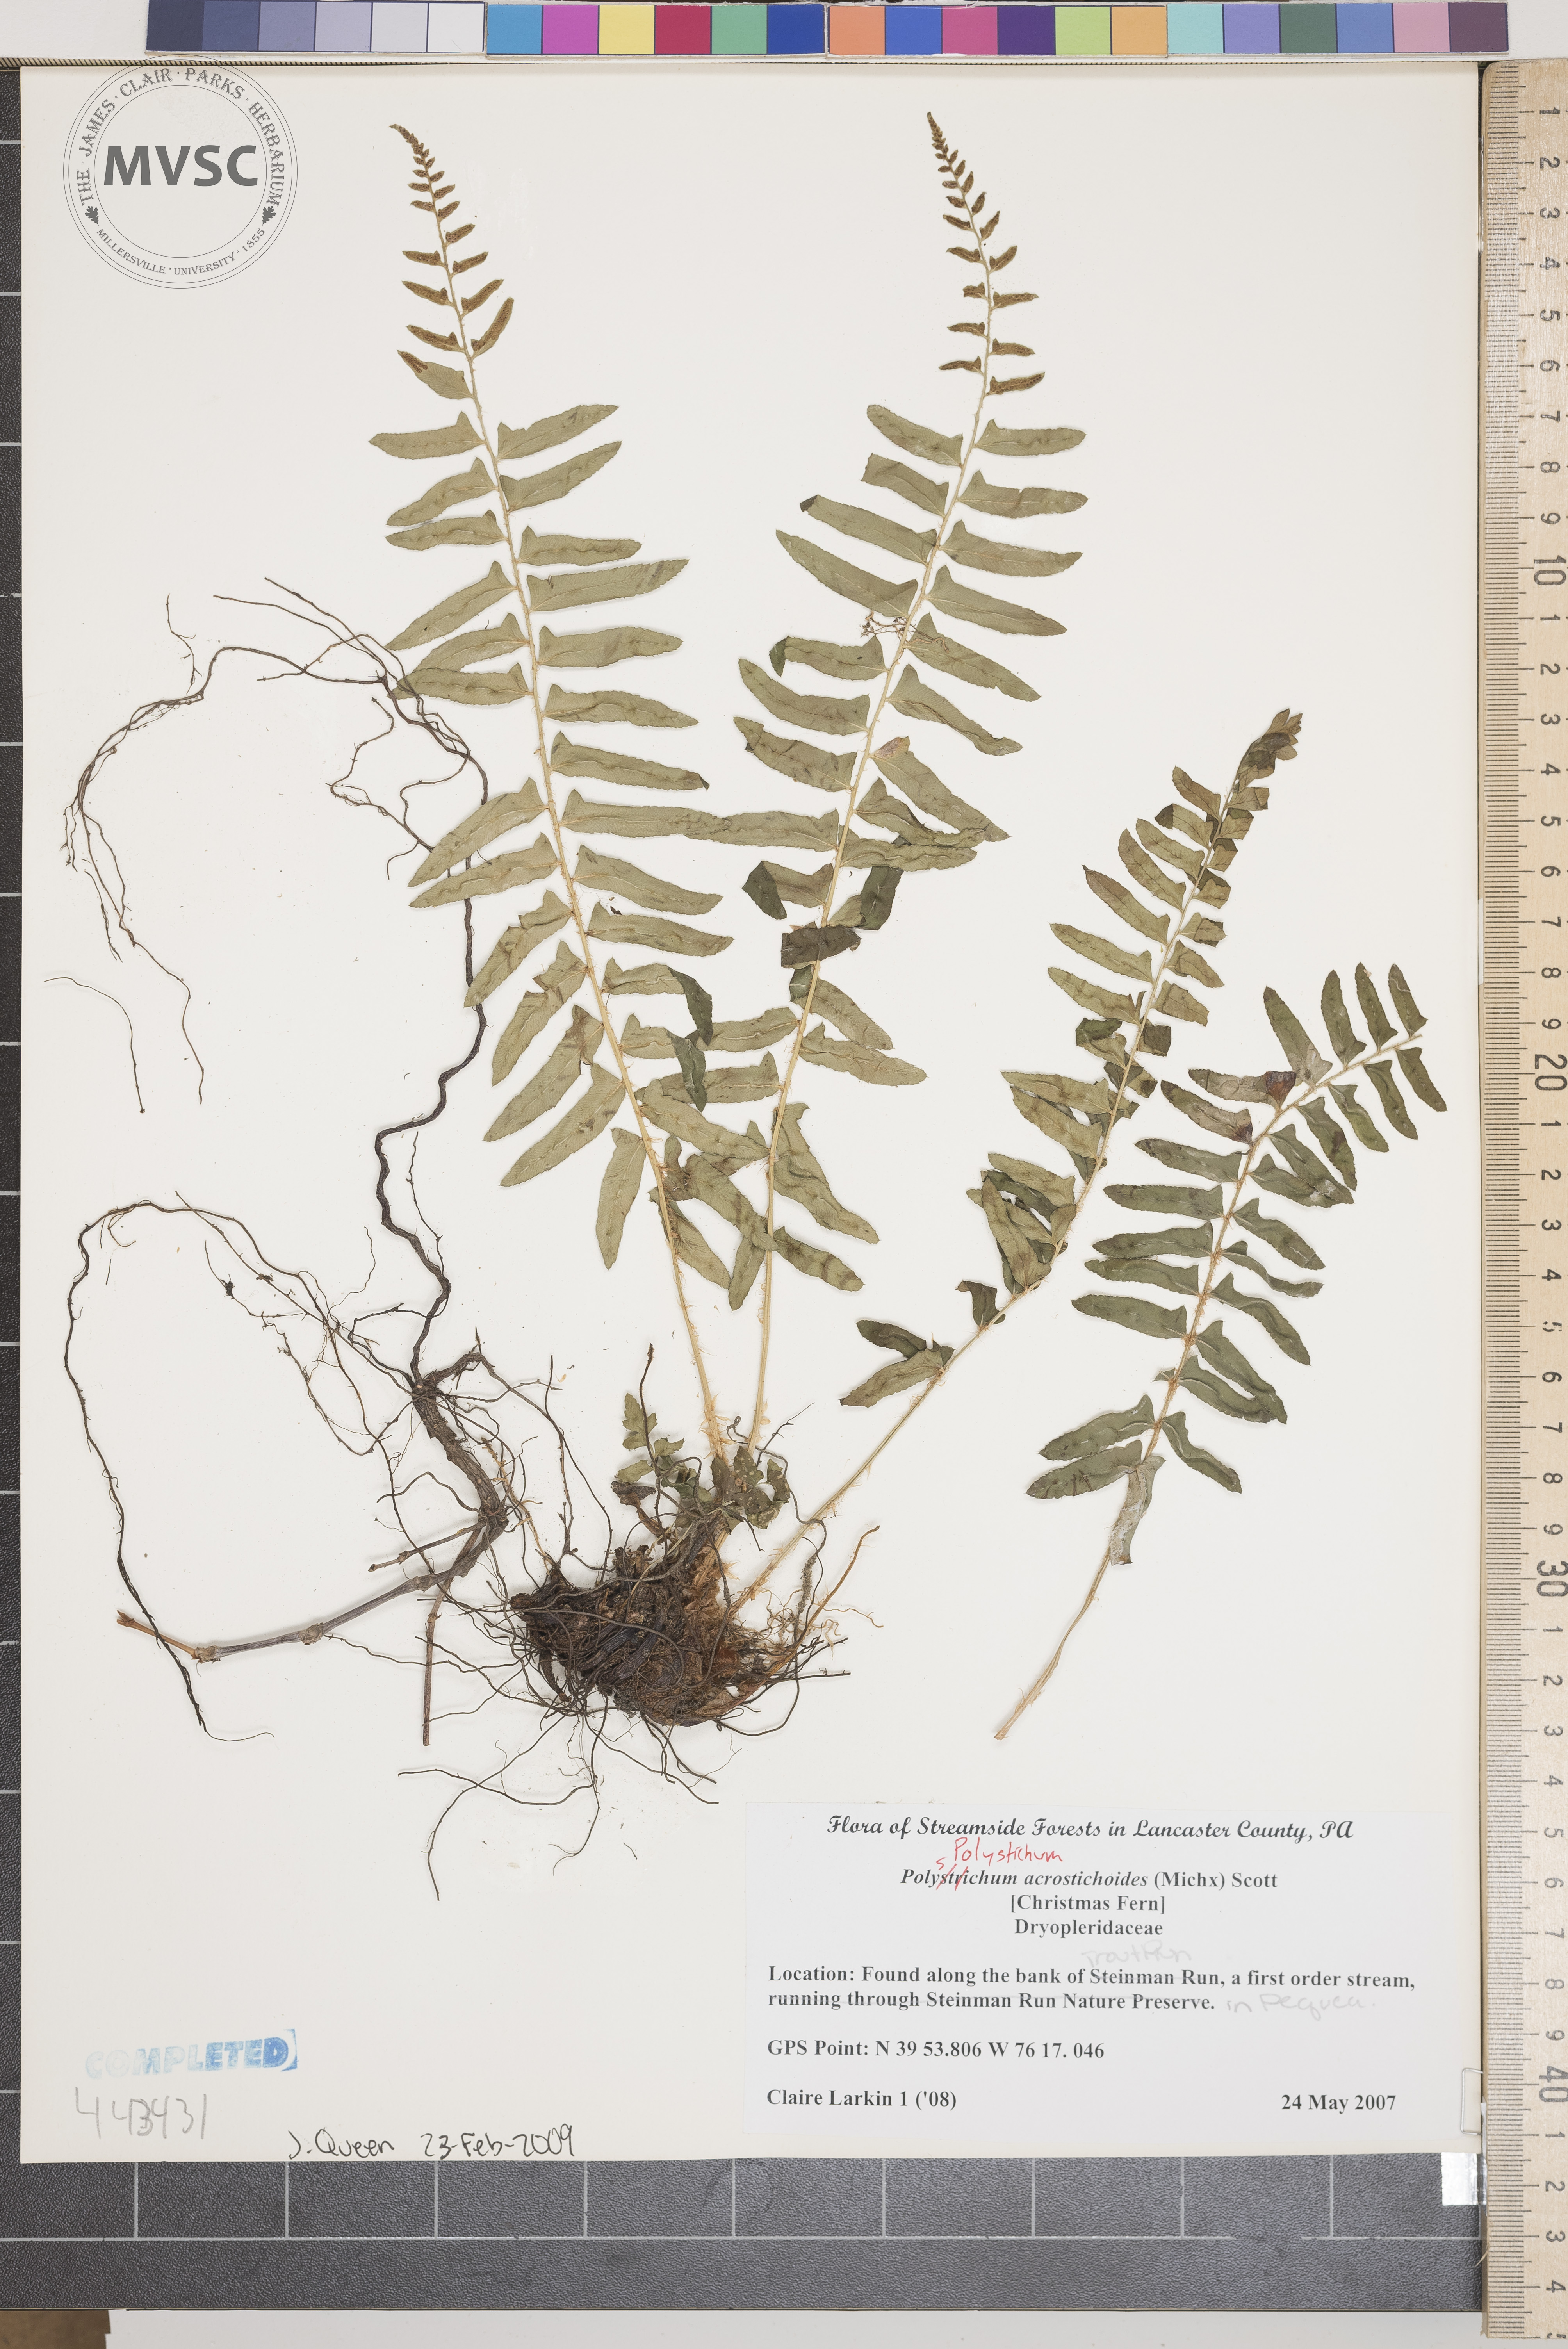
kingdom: Plantae
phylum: Tracheophyta
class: Polypodiopsida
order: Polypodiales
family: Dryopteridaceae
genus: Polystichum
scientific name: Polystichum acrostichoides
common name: Christmas Fern
